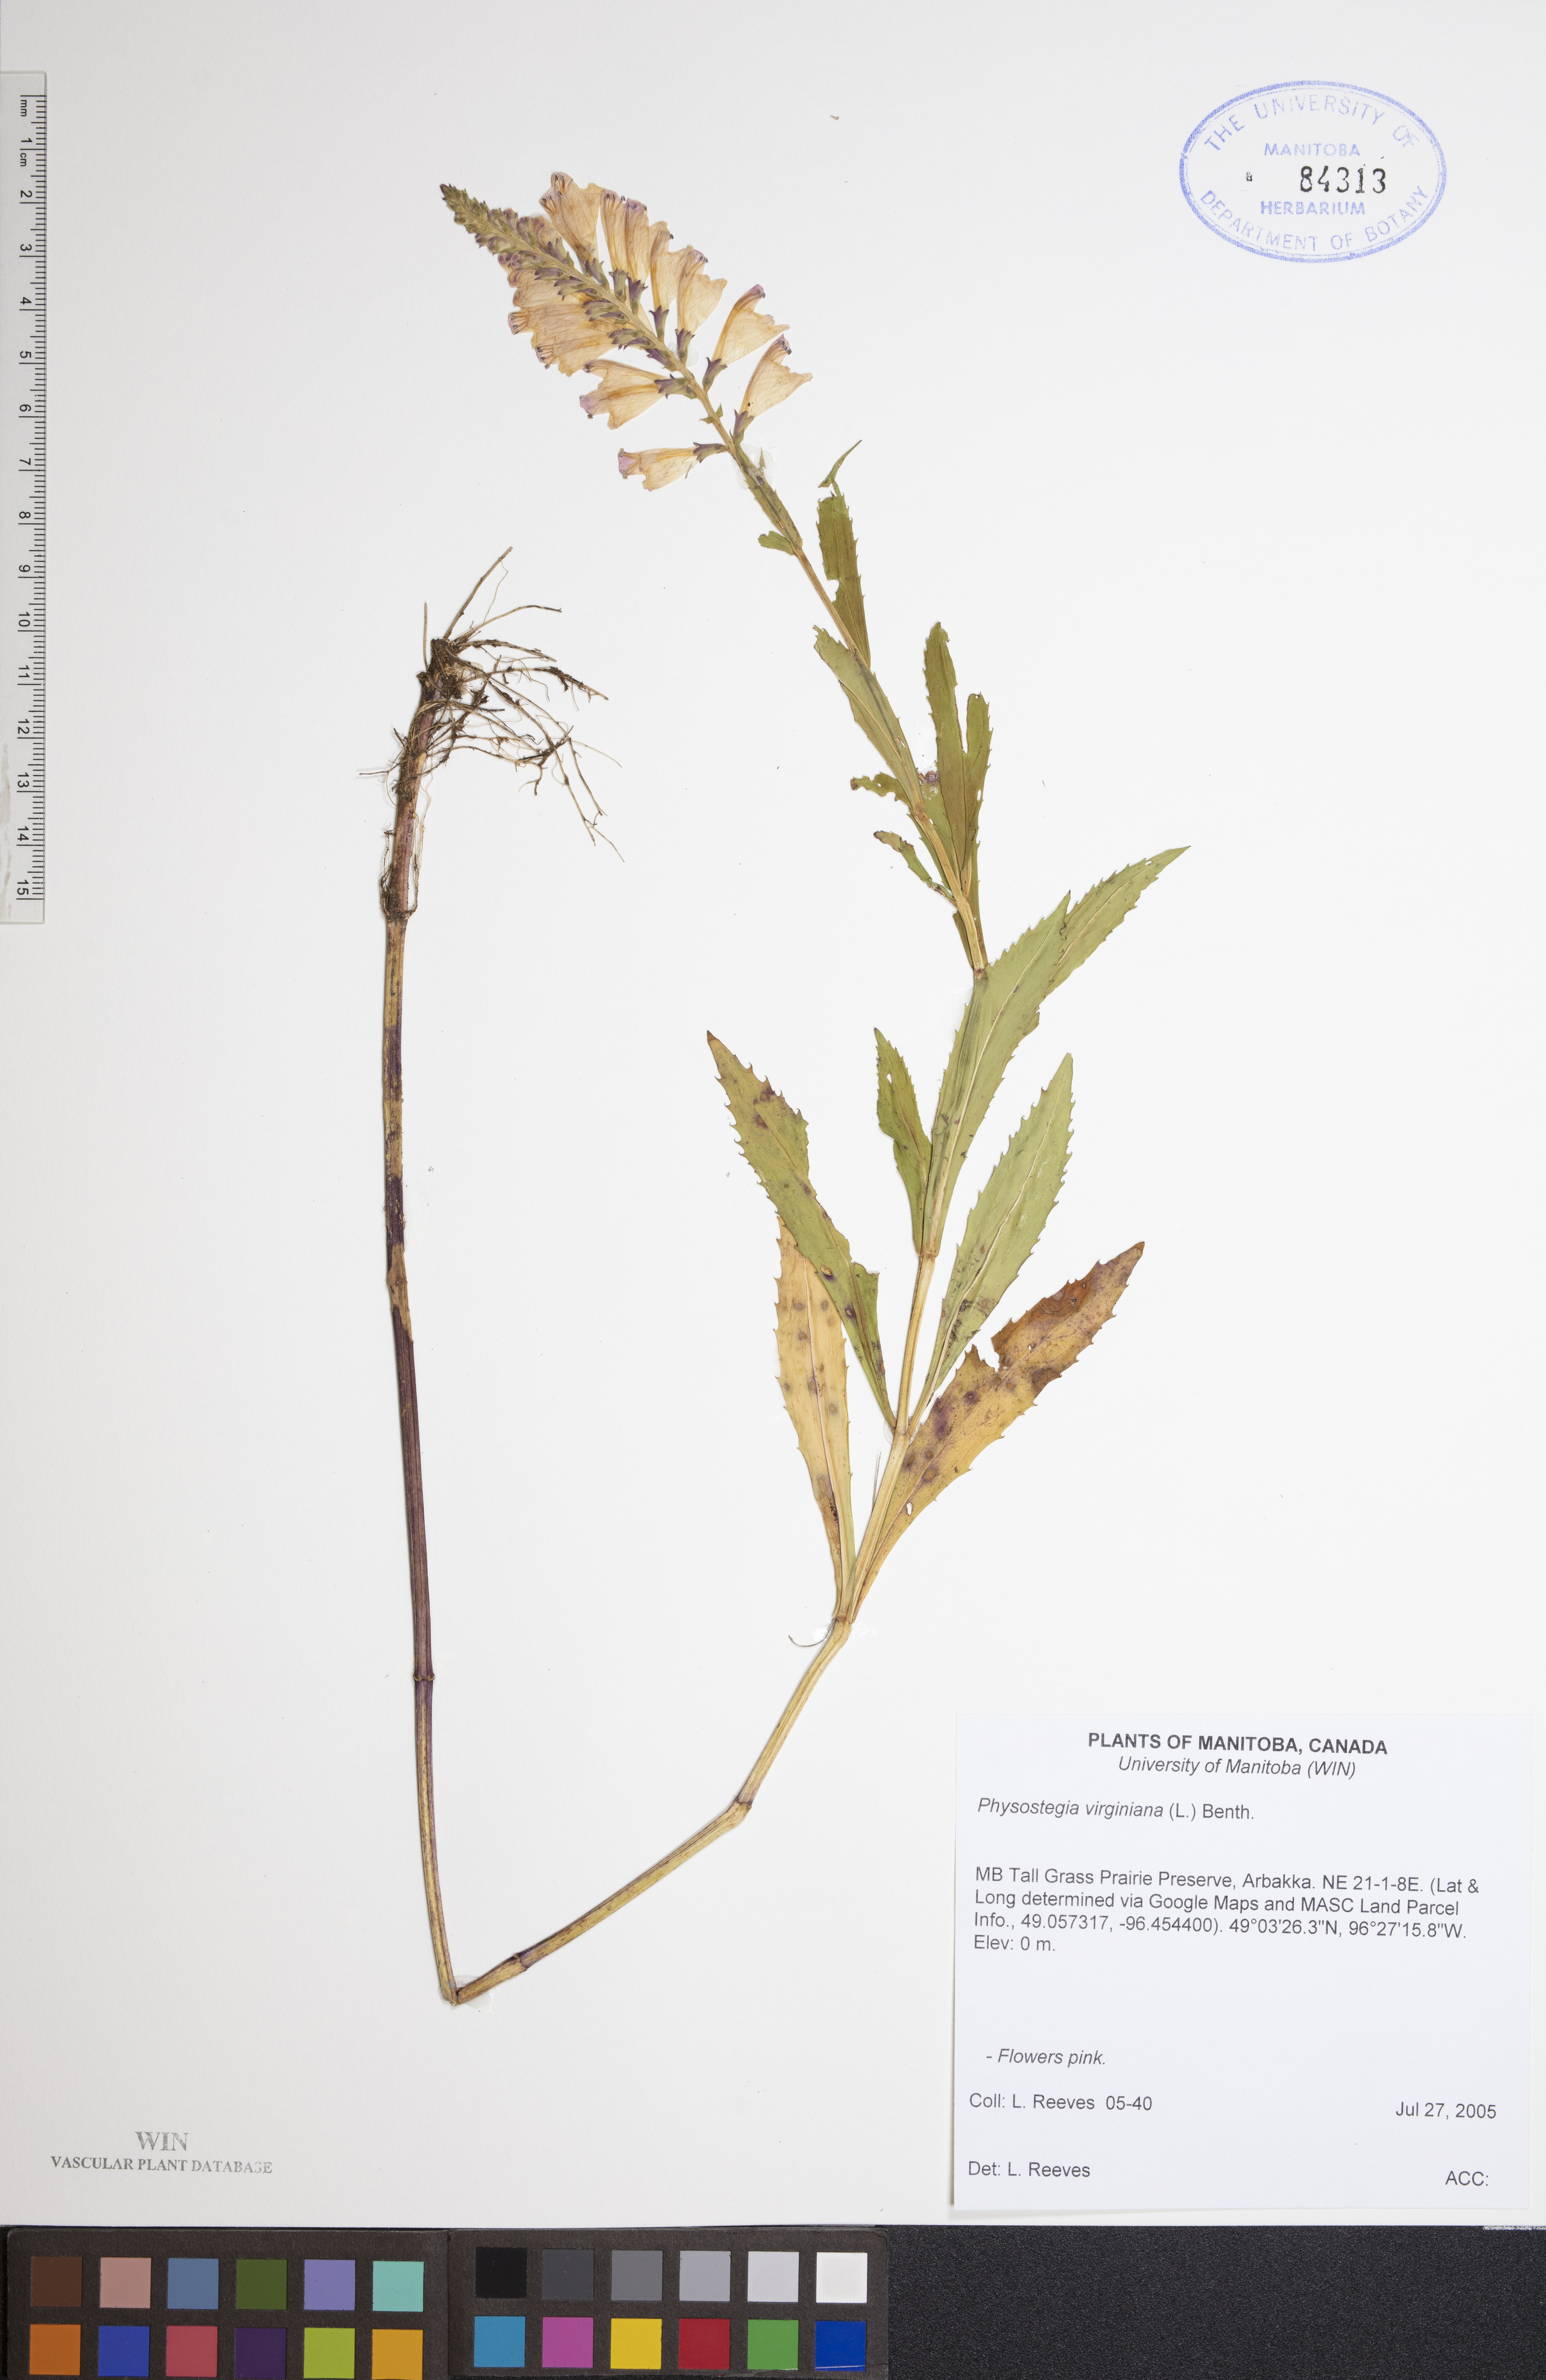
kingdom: Plantae
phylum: Tracheophyta
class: Magnoliopsida
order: Lamiales
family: Lamiaceae
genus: Physostegia
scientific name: Physostegia virginiana
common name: Obedient-plant
